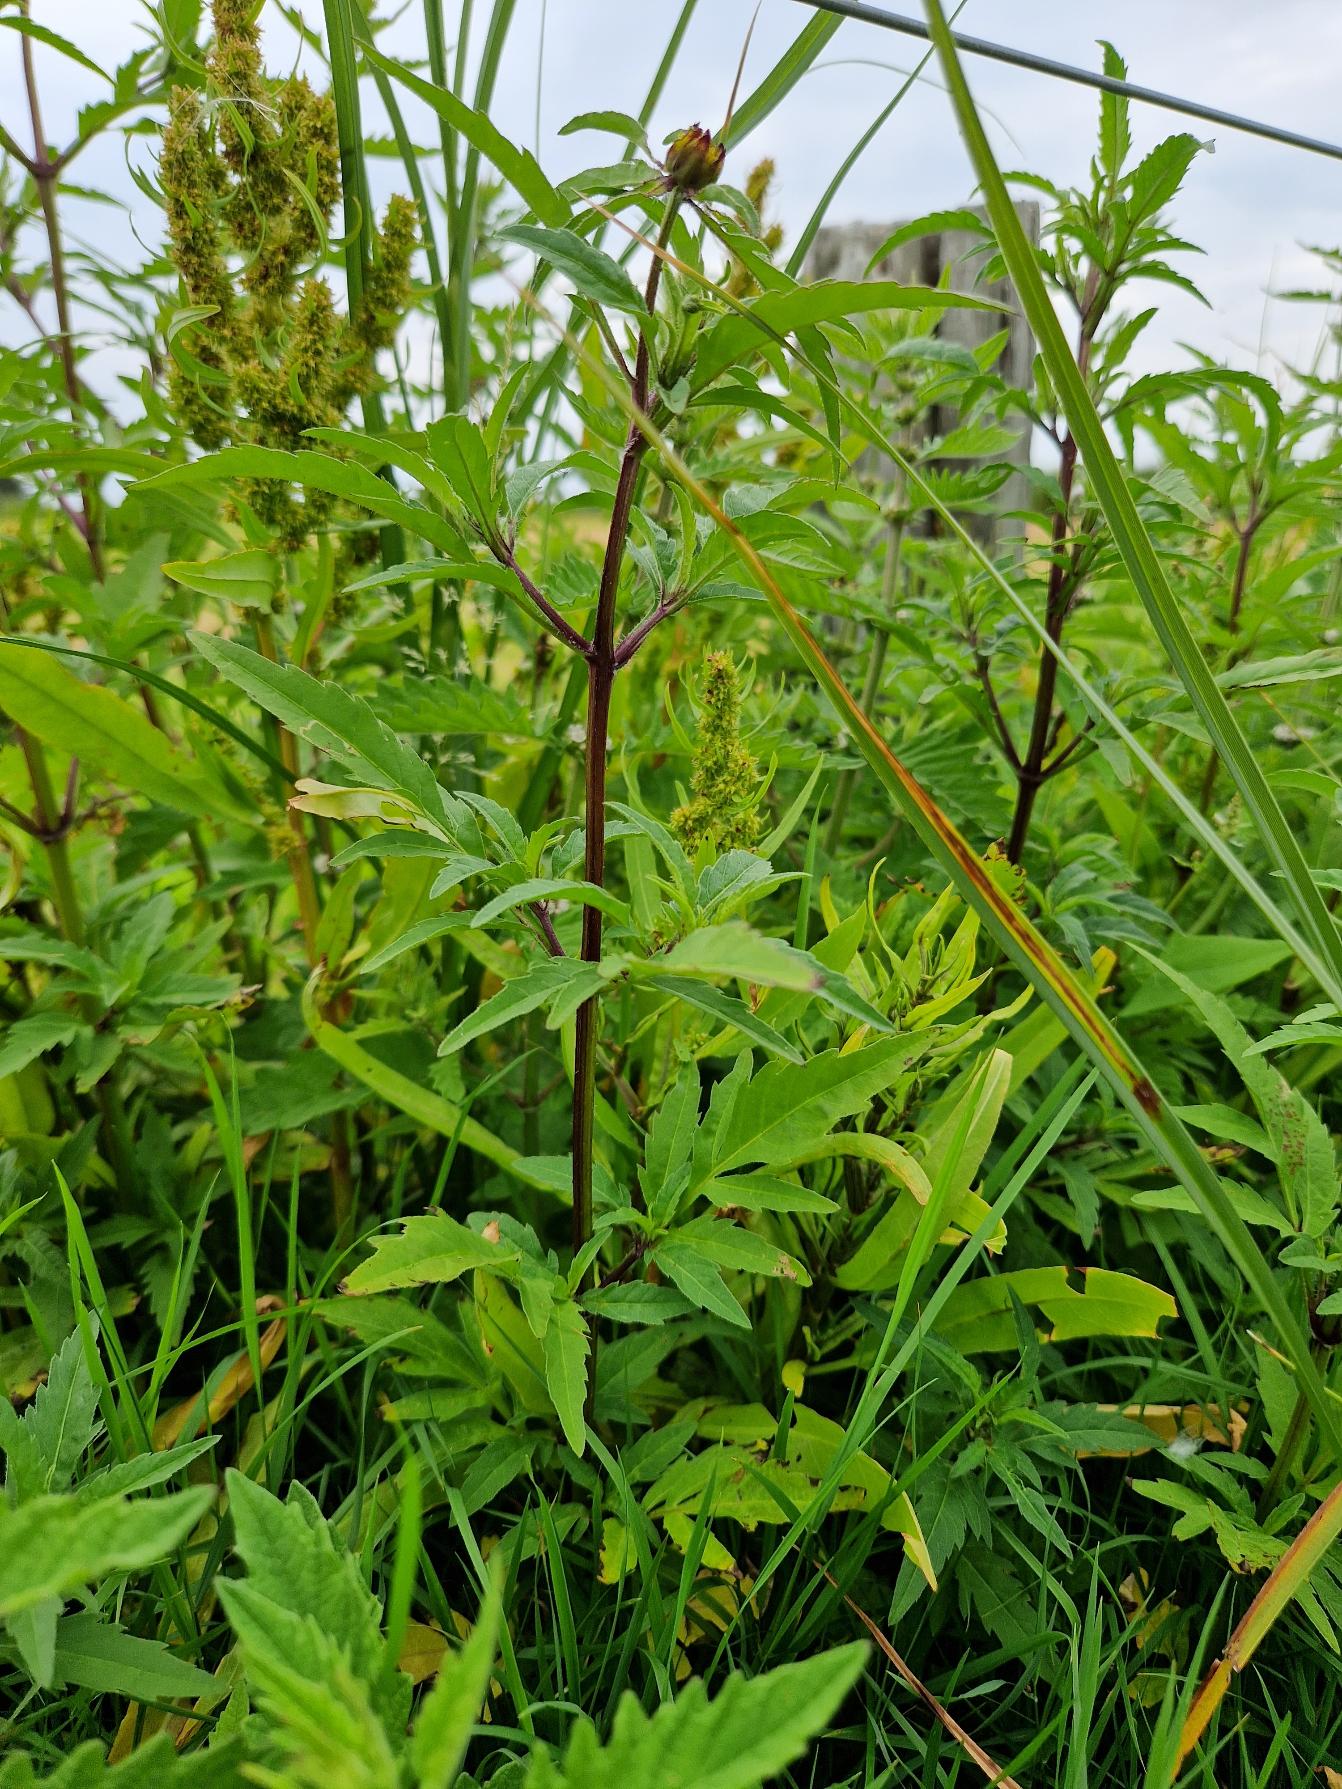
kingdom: Plantae
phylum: Tracheophyta
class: Magnoliopsida
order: Asterales
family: Asteraceae
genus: Bidens
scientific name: Bidens tripartita
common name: Fliget brøndsel
